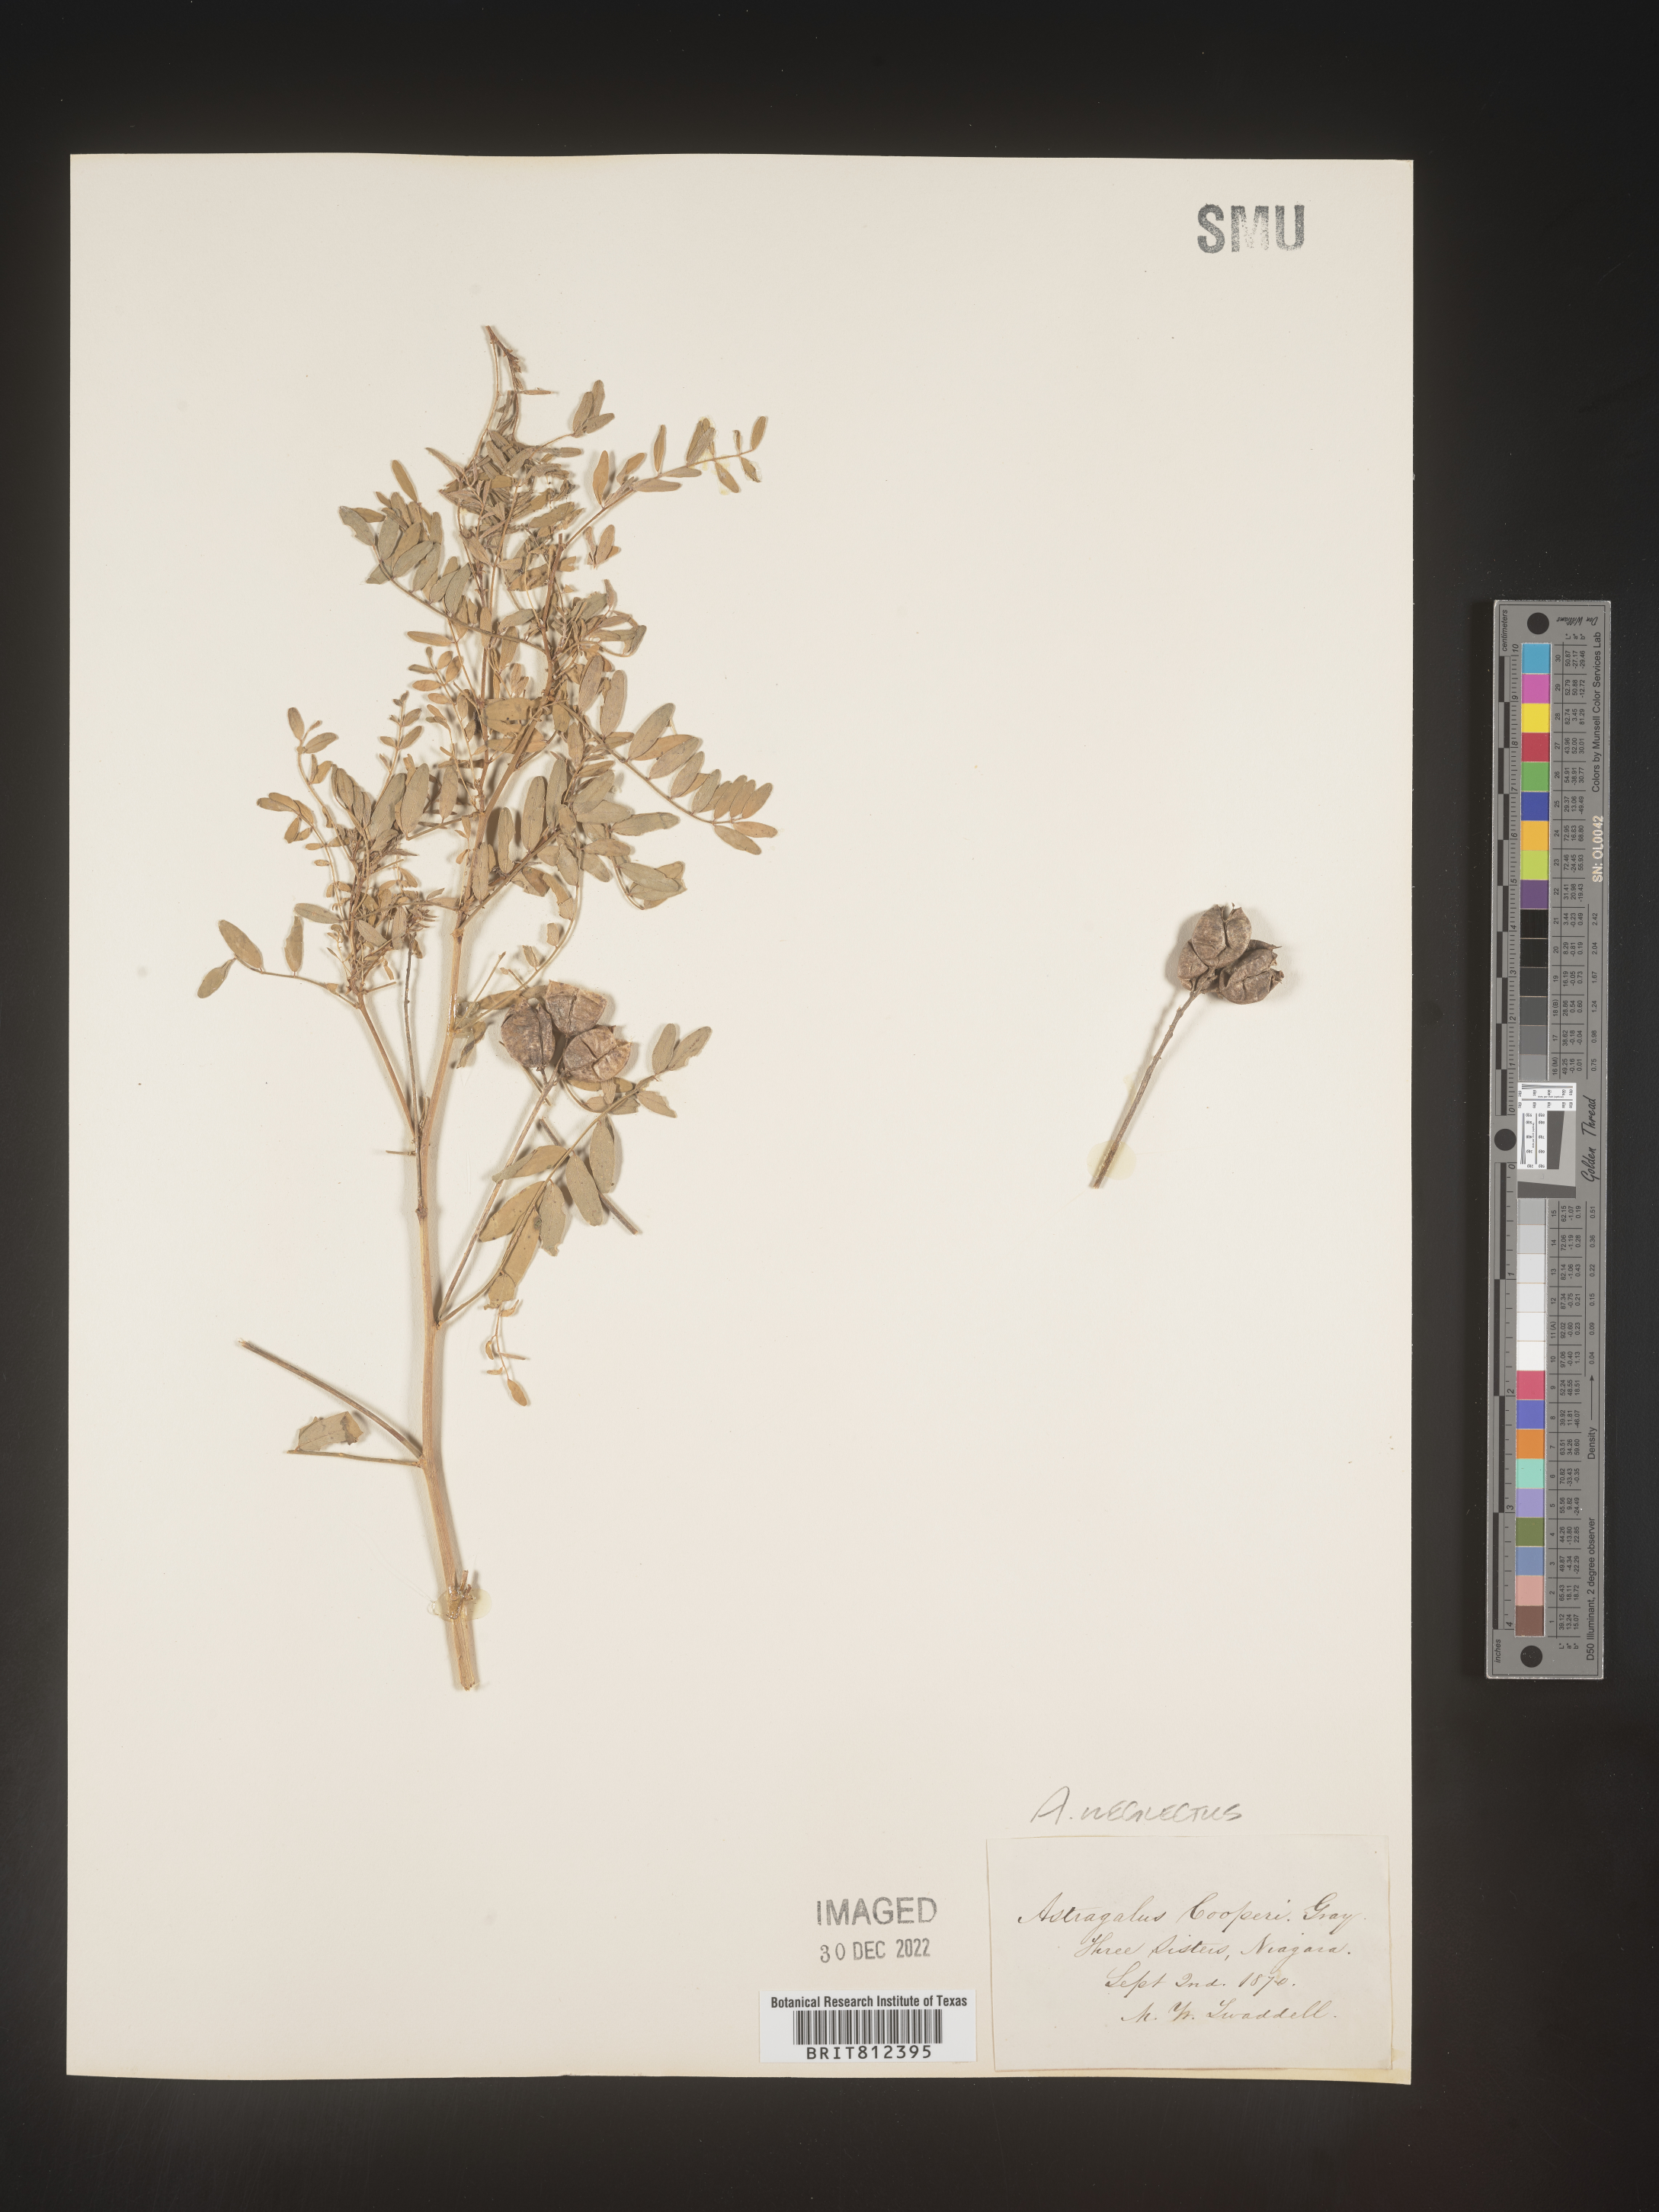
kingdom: Plantae
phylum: Tracheophyta
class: Magnoliopsida
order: Fabales
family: Fabaceae
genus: Astragalus
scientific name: Astragalus
